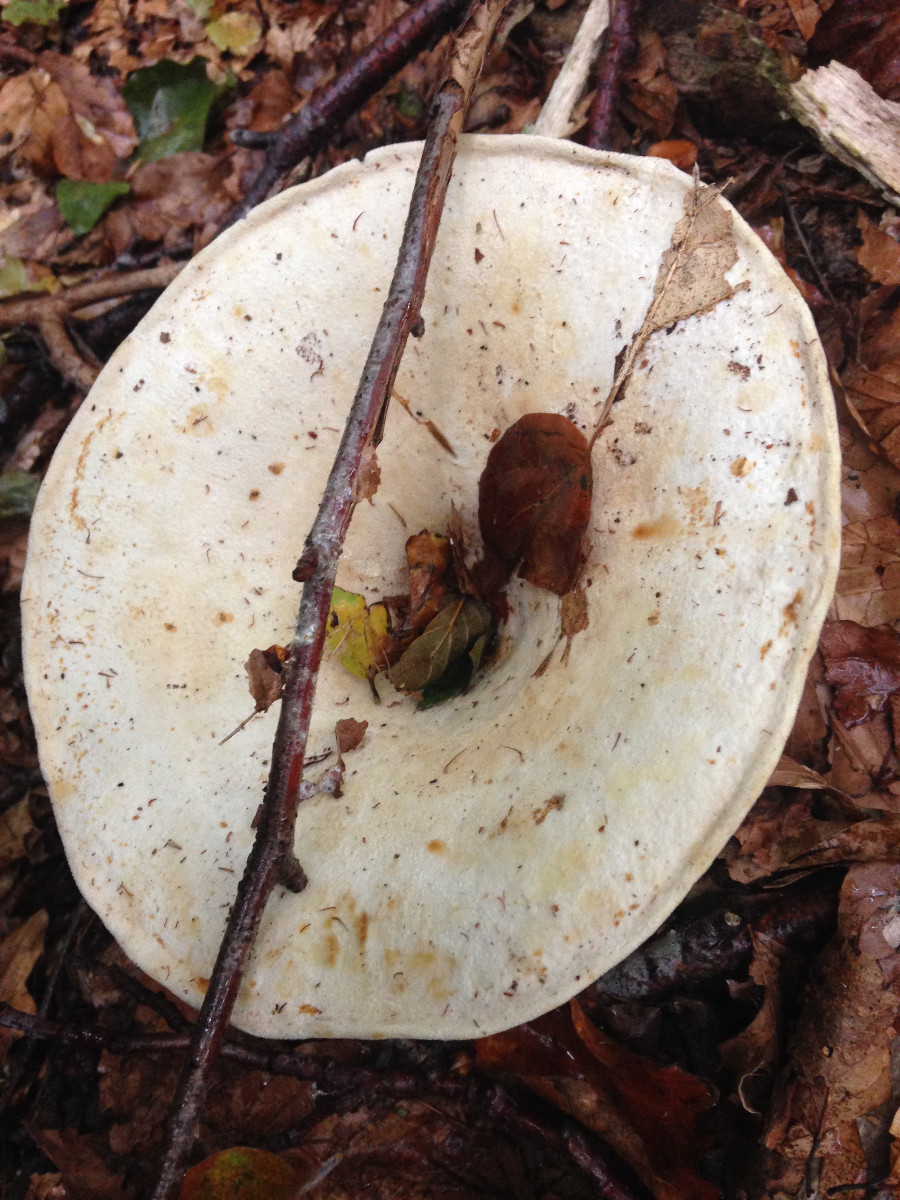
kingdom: Fungi
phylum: Basidiomycota
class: Agaricomycetes
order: Russulales
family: Russulaceae
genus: Lactarius
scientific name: Lactarius
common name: mælkehat
